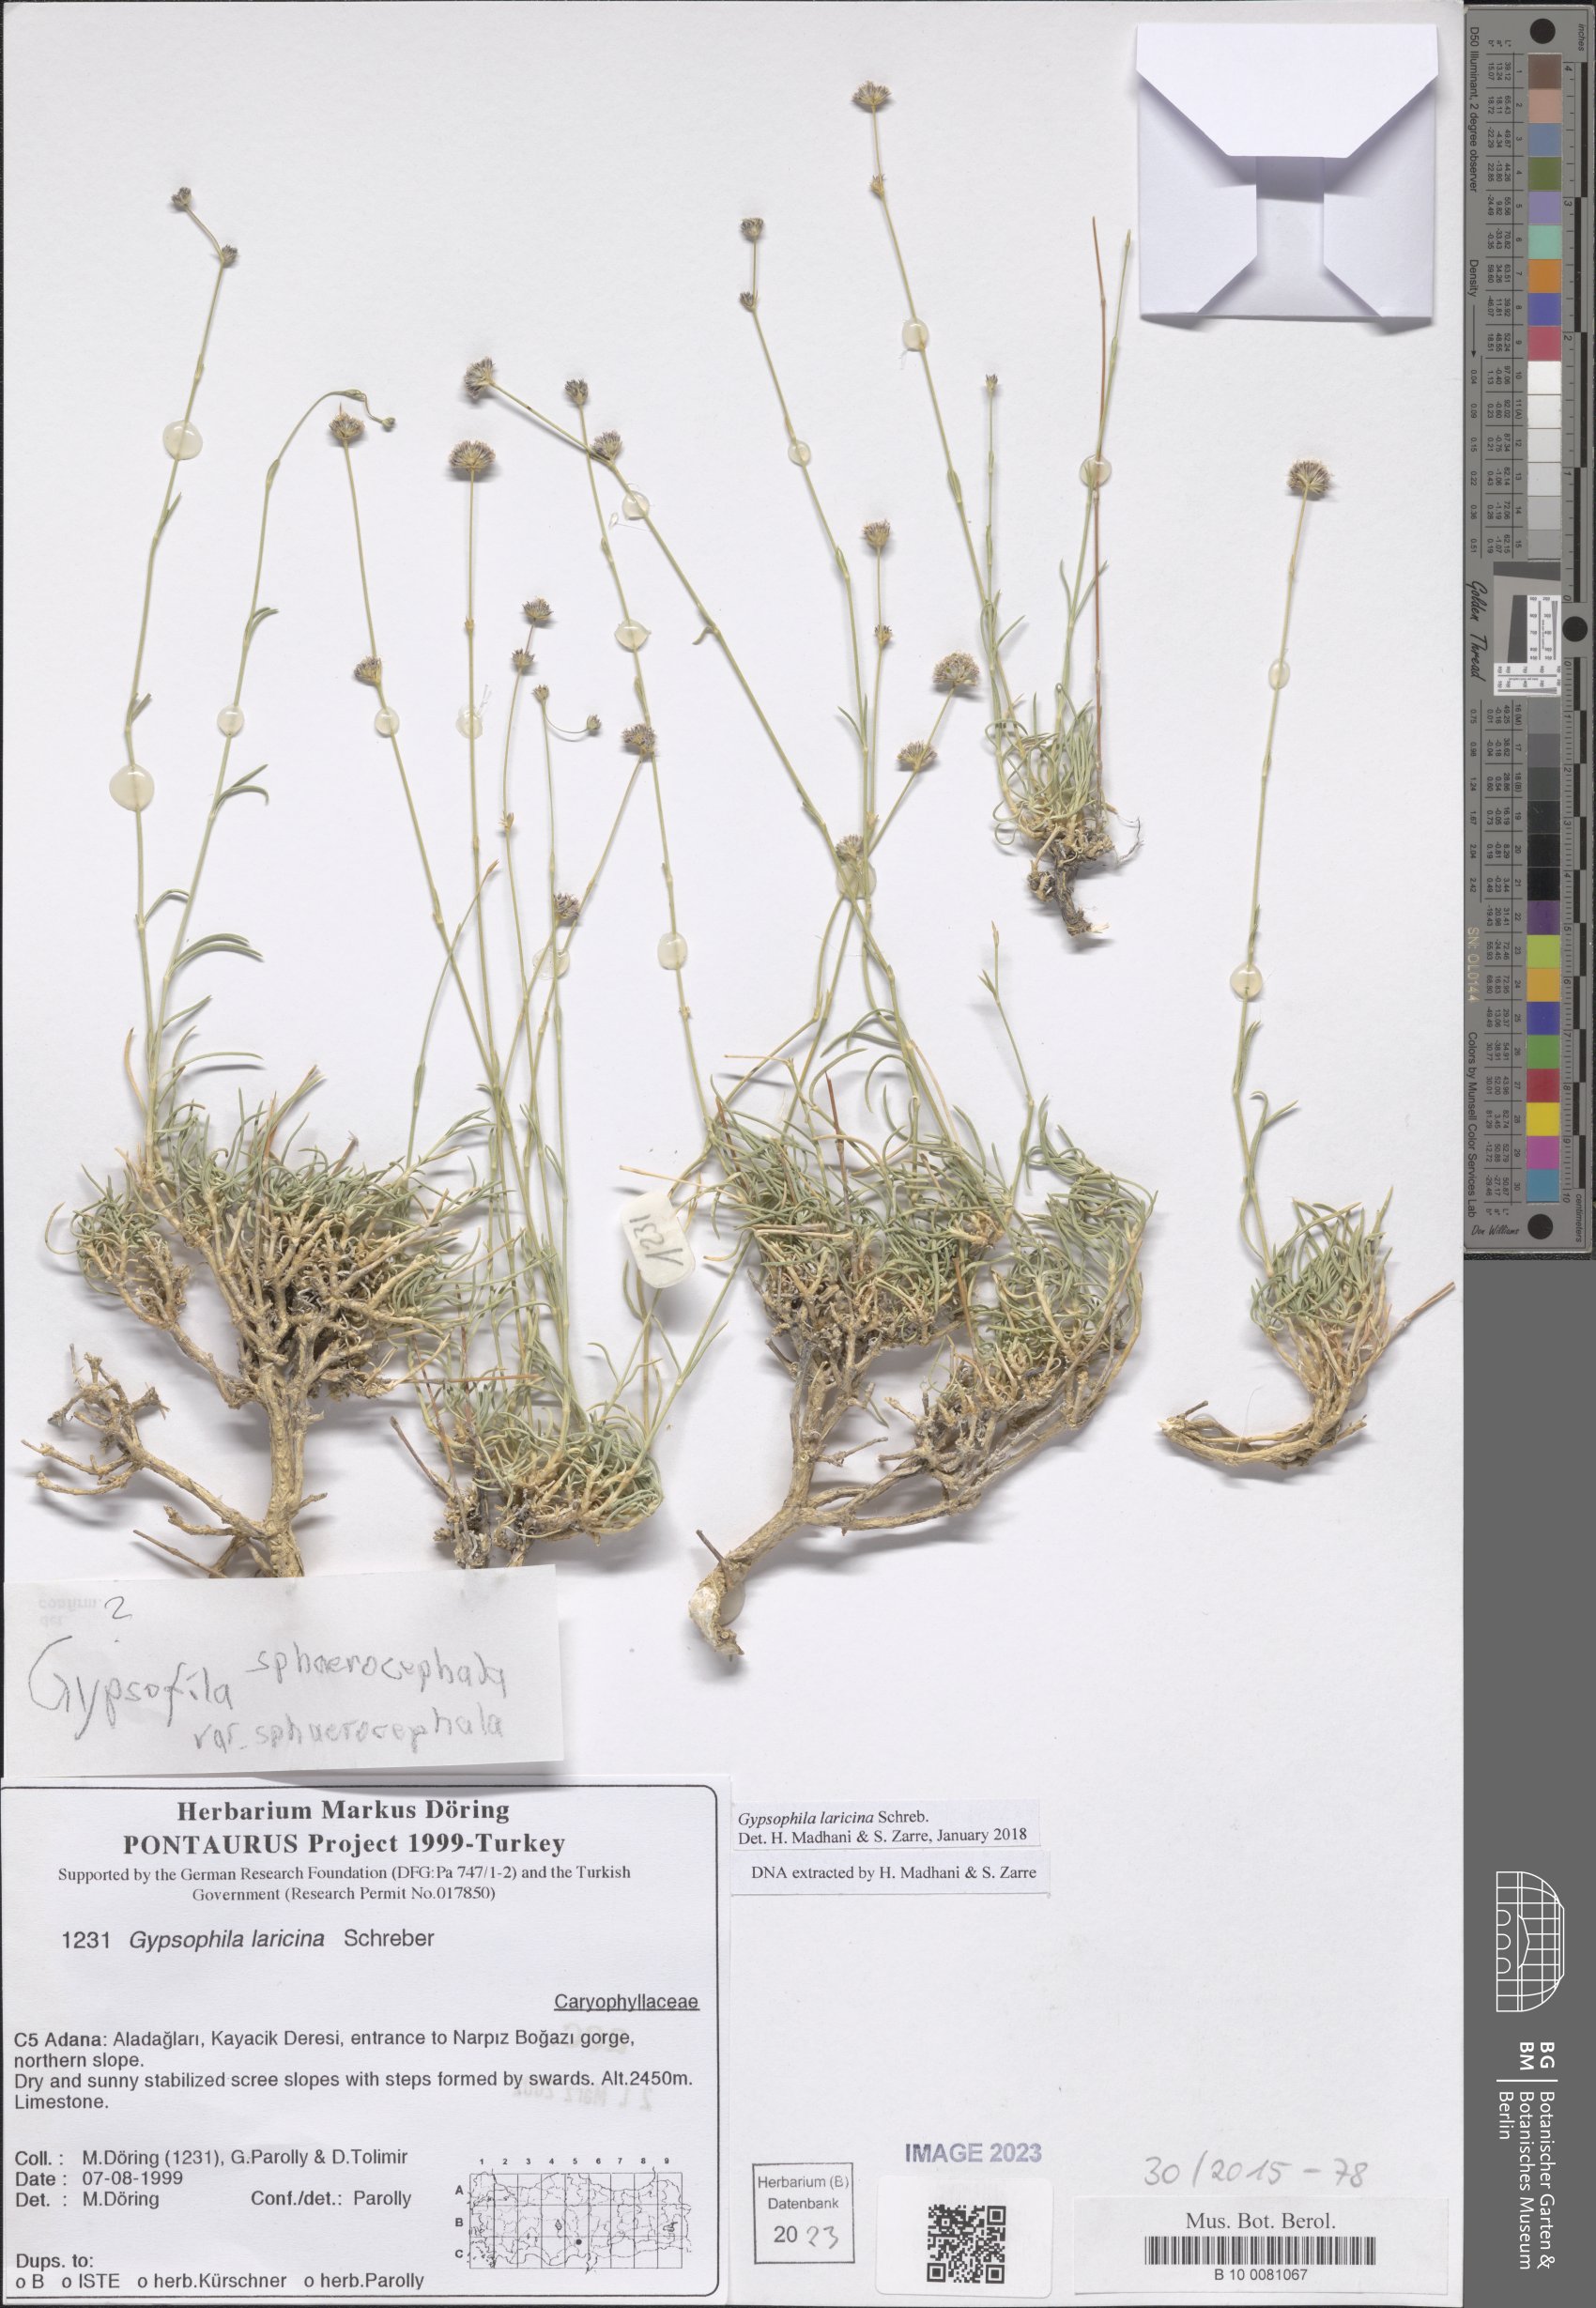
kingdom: Plantae
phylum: Tracheophyta
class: Magnoliopsida
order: Caryophyllales
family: Caryophyllaceae
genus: Gypsophila
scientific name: Gypsophila laricina
